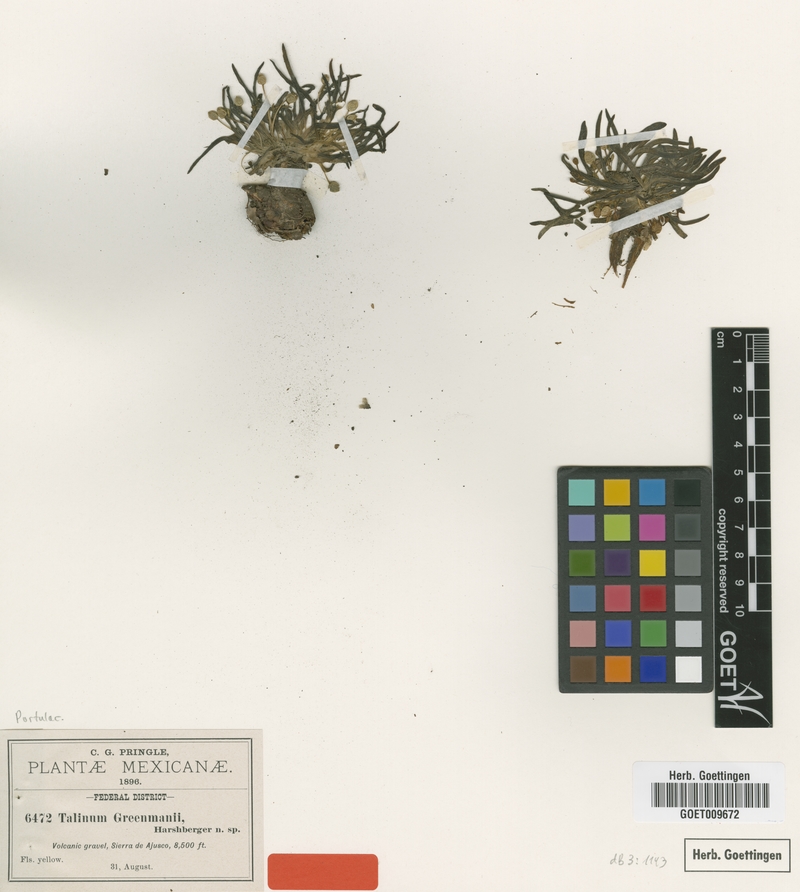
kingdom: Plantae
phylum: Tracheophyta
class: Magnoliopsida
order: Caryophyllales
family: Montiaceae
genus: Phemeranthus
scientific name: Phemeranthus greenmanii
